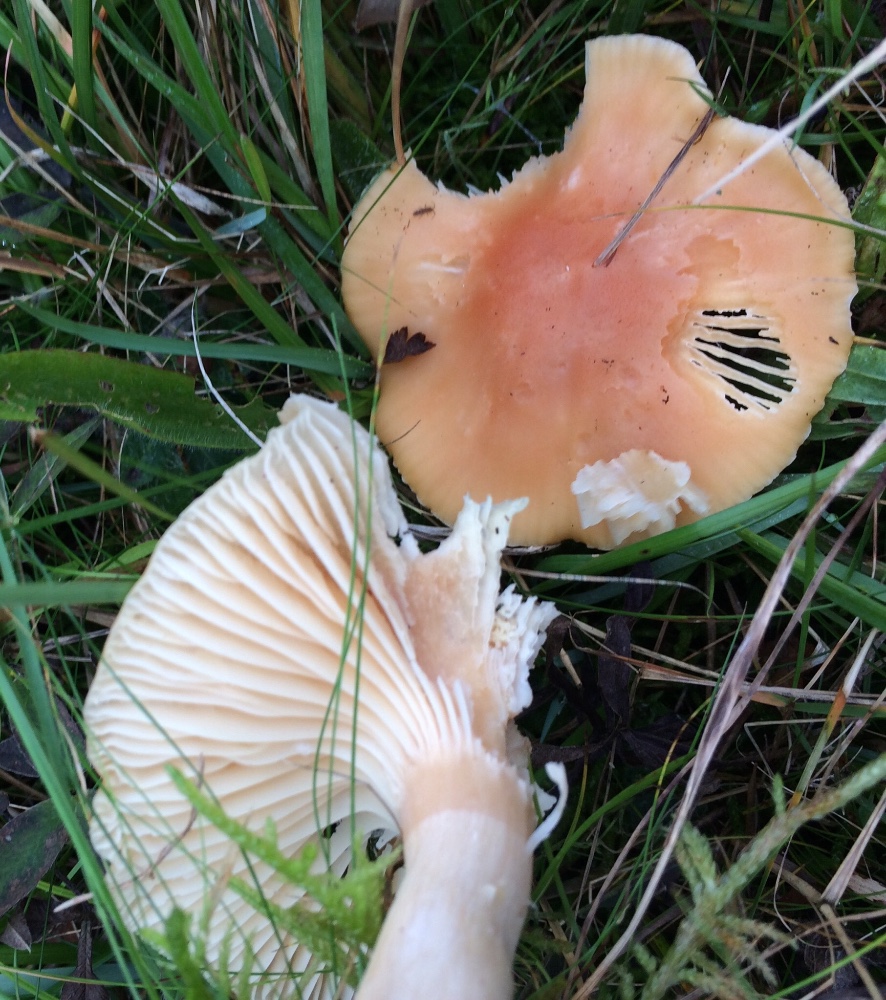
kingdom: Fungi
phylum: Basidiomycota
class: Agaricomycetes
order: Agaricales
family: Hygrophoraceae
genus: Cuphophyllus
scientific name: Cuphophyllus pratensis
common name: eng-vokshat
